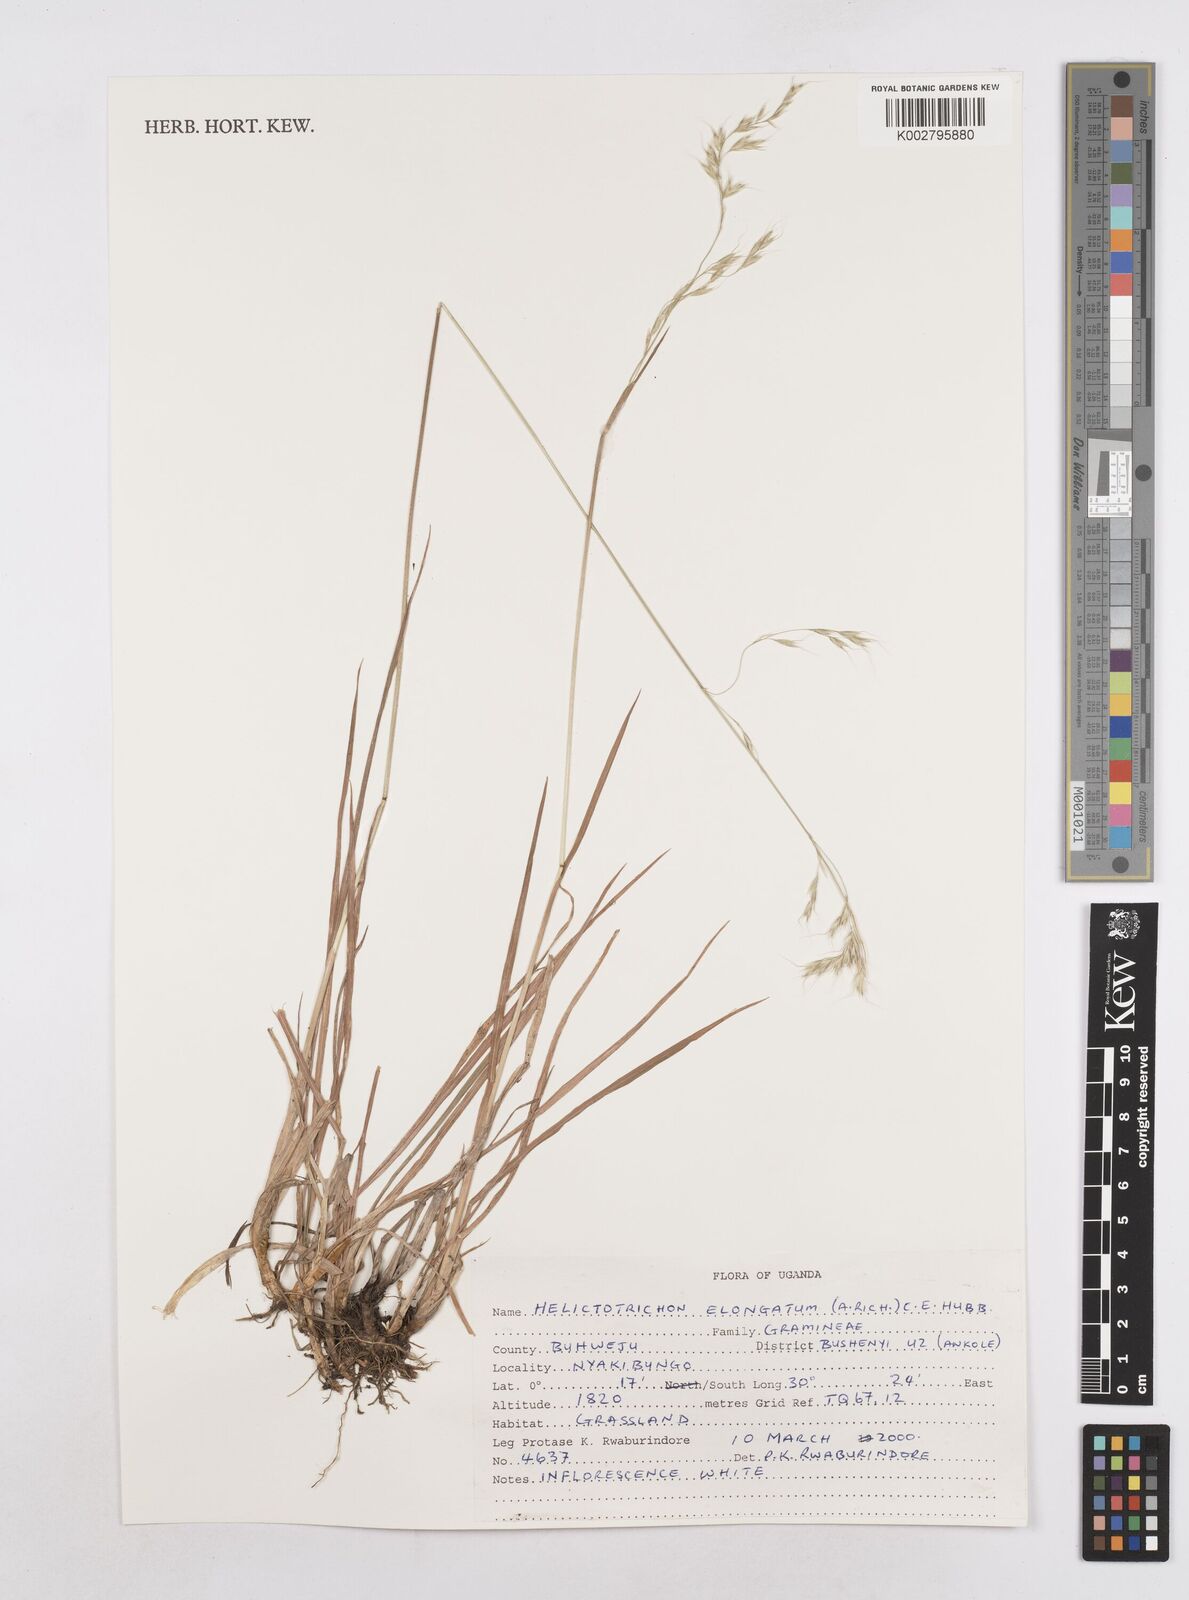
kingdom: Plantae
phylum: Tracheophyta
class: Liliopsida
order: Poales
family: Poaceae
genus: Trisetopsis
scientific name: Trisetopsis elongata
